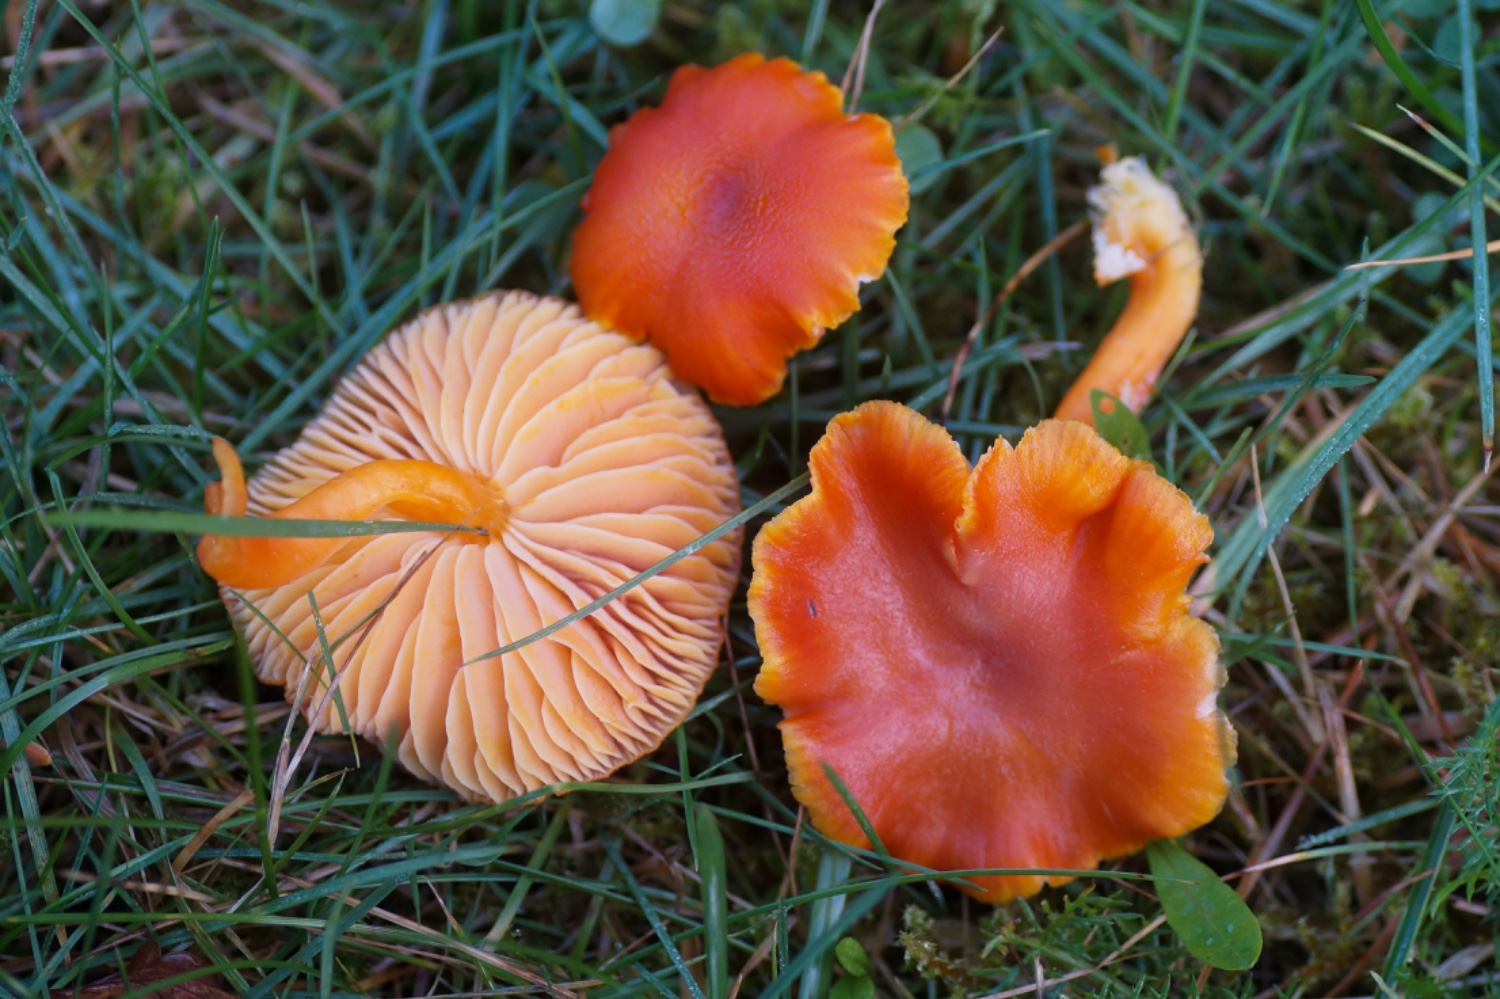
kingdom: Fungi
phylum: Basidiomycota
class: Agaricomycetes
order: Agaricales
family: Hygrophoraceae
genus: Hygrocybe
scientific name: Hygrocybe miniata
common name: mønje-vokshat
